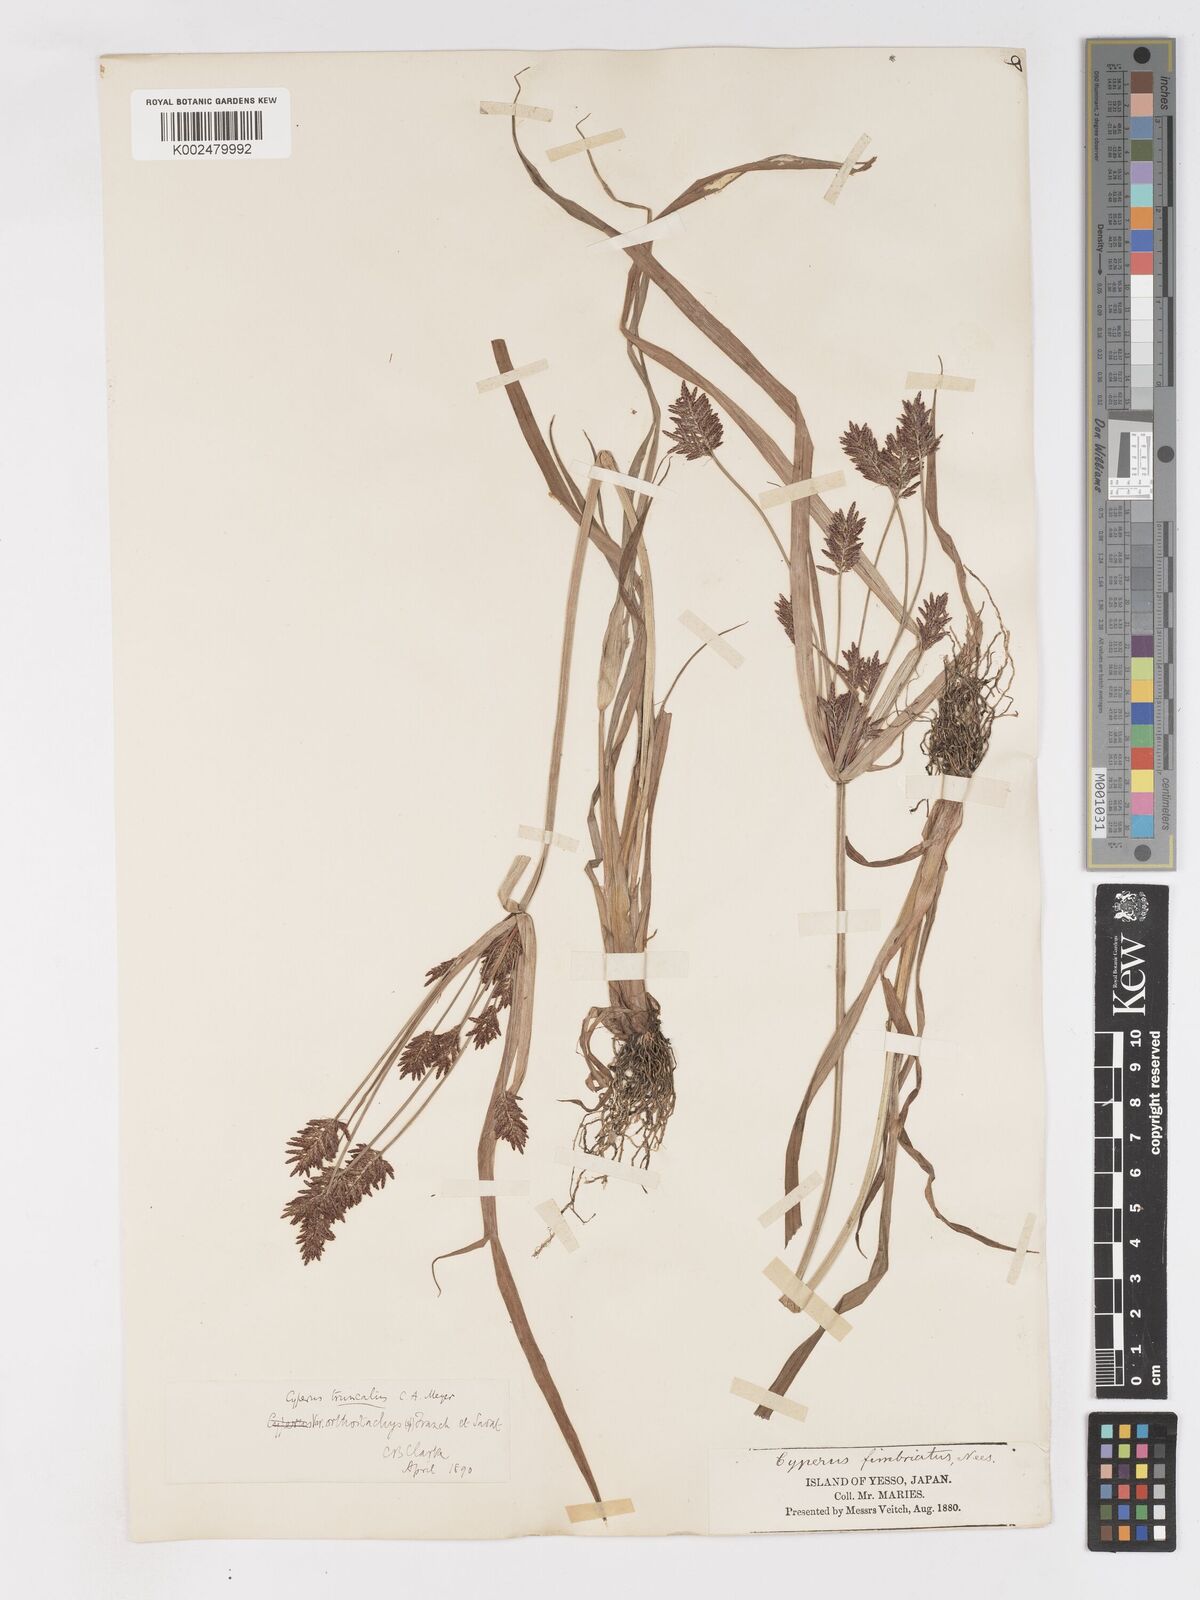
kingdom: Plantae
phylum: Tracheophyta
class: Liliopsida
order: Poales
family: Cyperaceae
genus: Cyperus
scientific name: Cyperus schimperianus
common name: Schimper flatsedge
